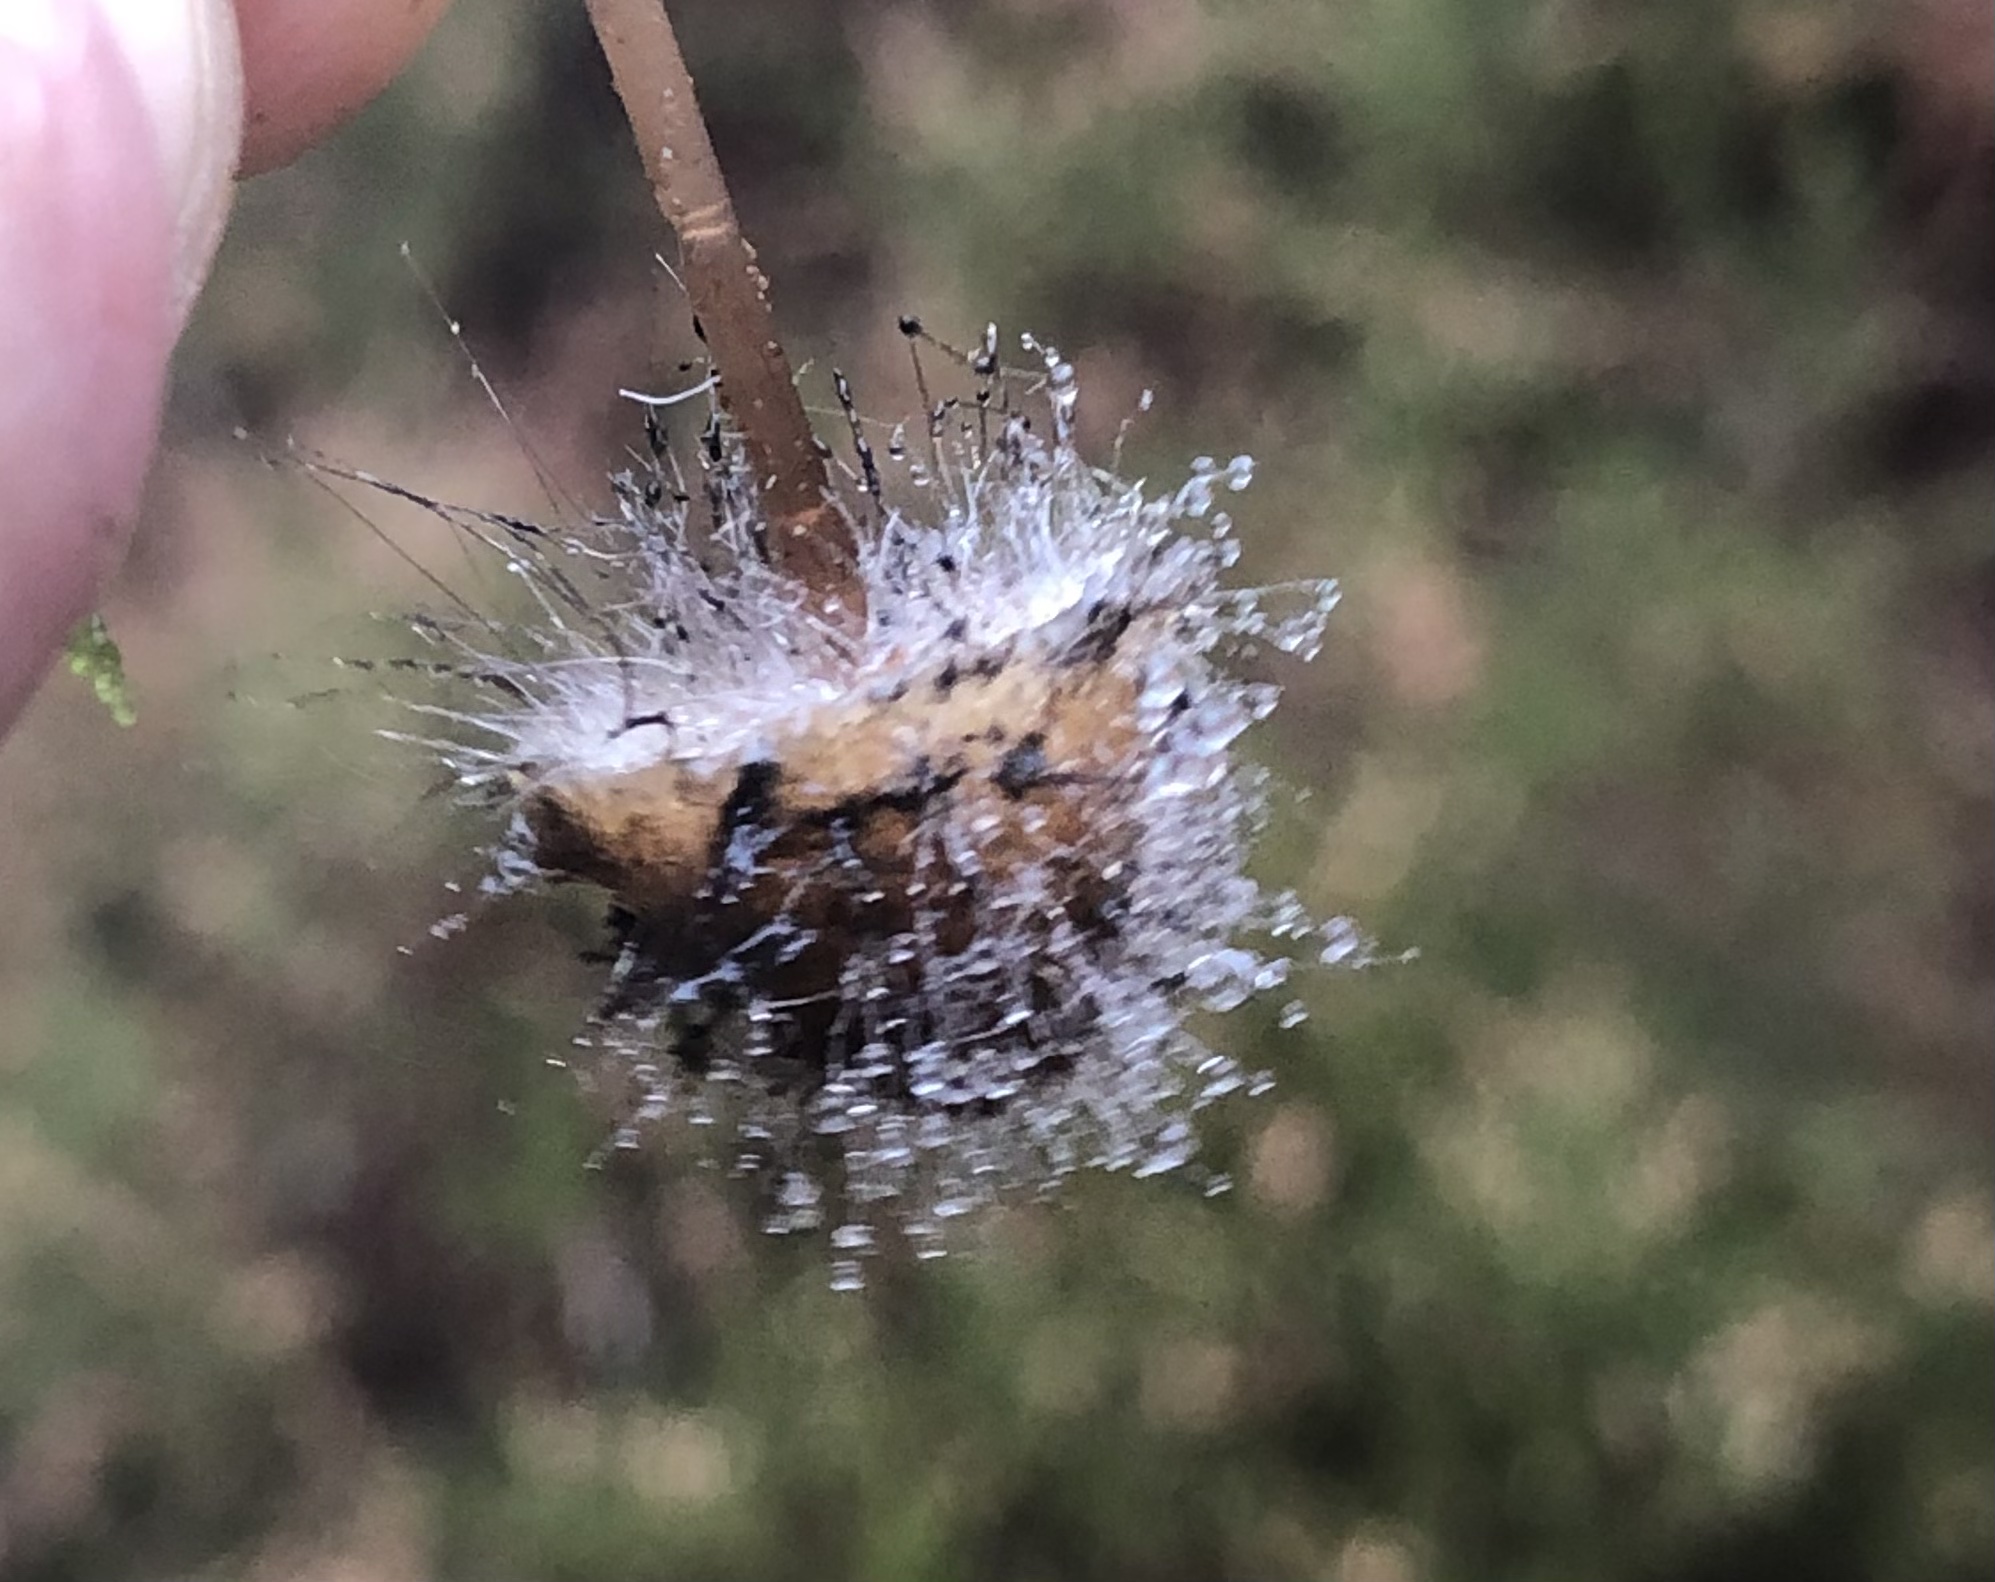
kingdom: Fungi
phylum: Mucoromycota
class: Mucoromycetes
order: Mucorales
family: Phycomycetaceae
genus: Spinellus
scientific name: Spinellus fusiger
